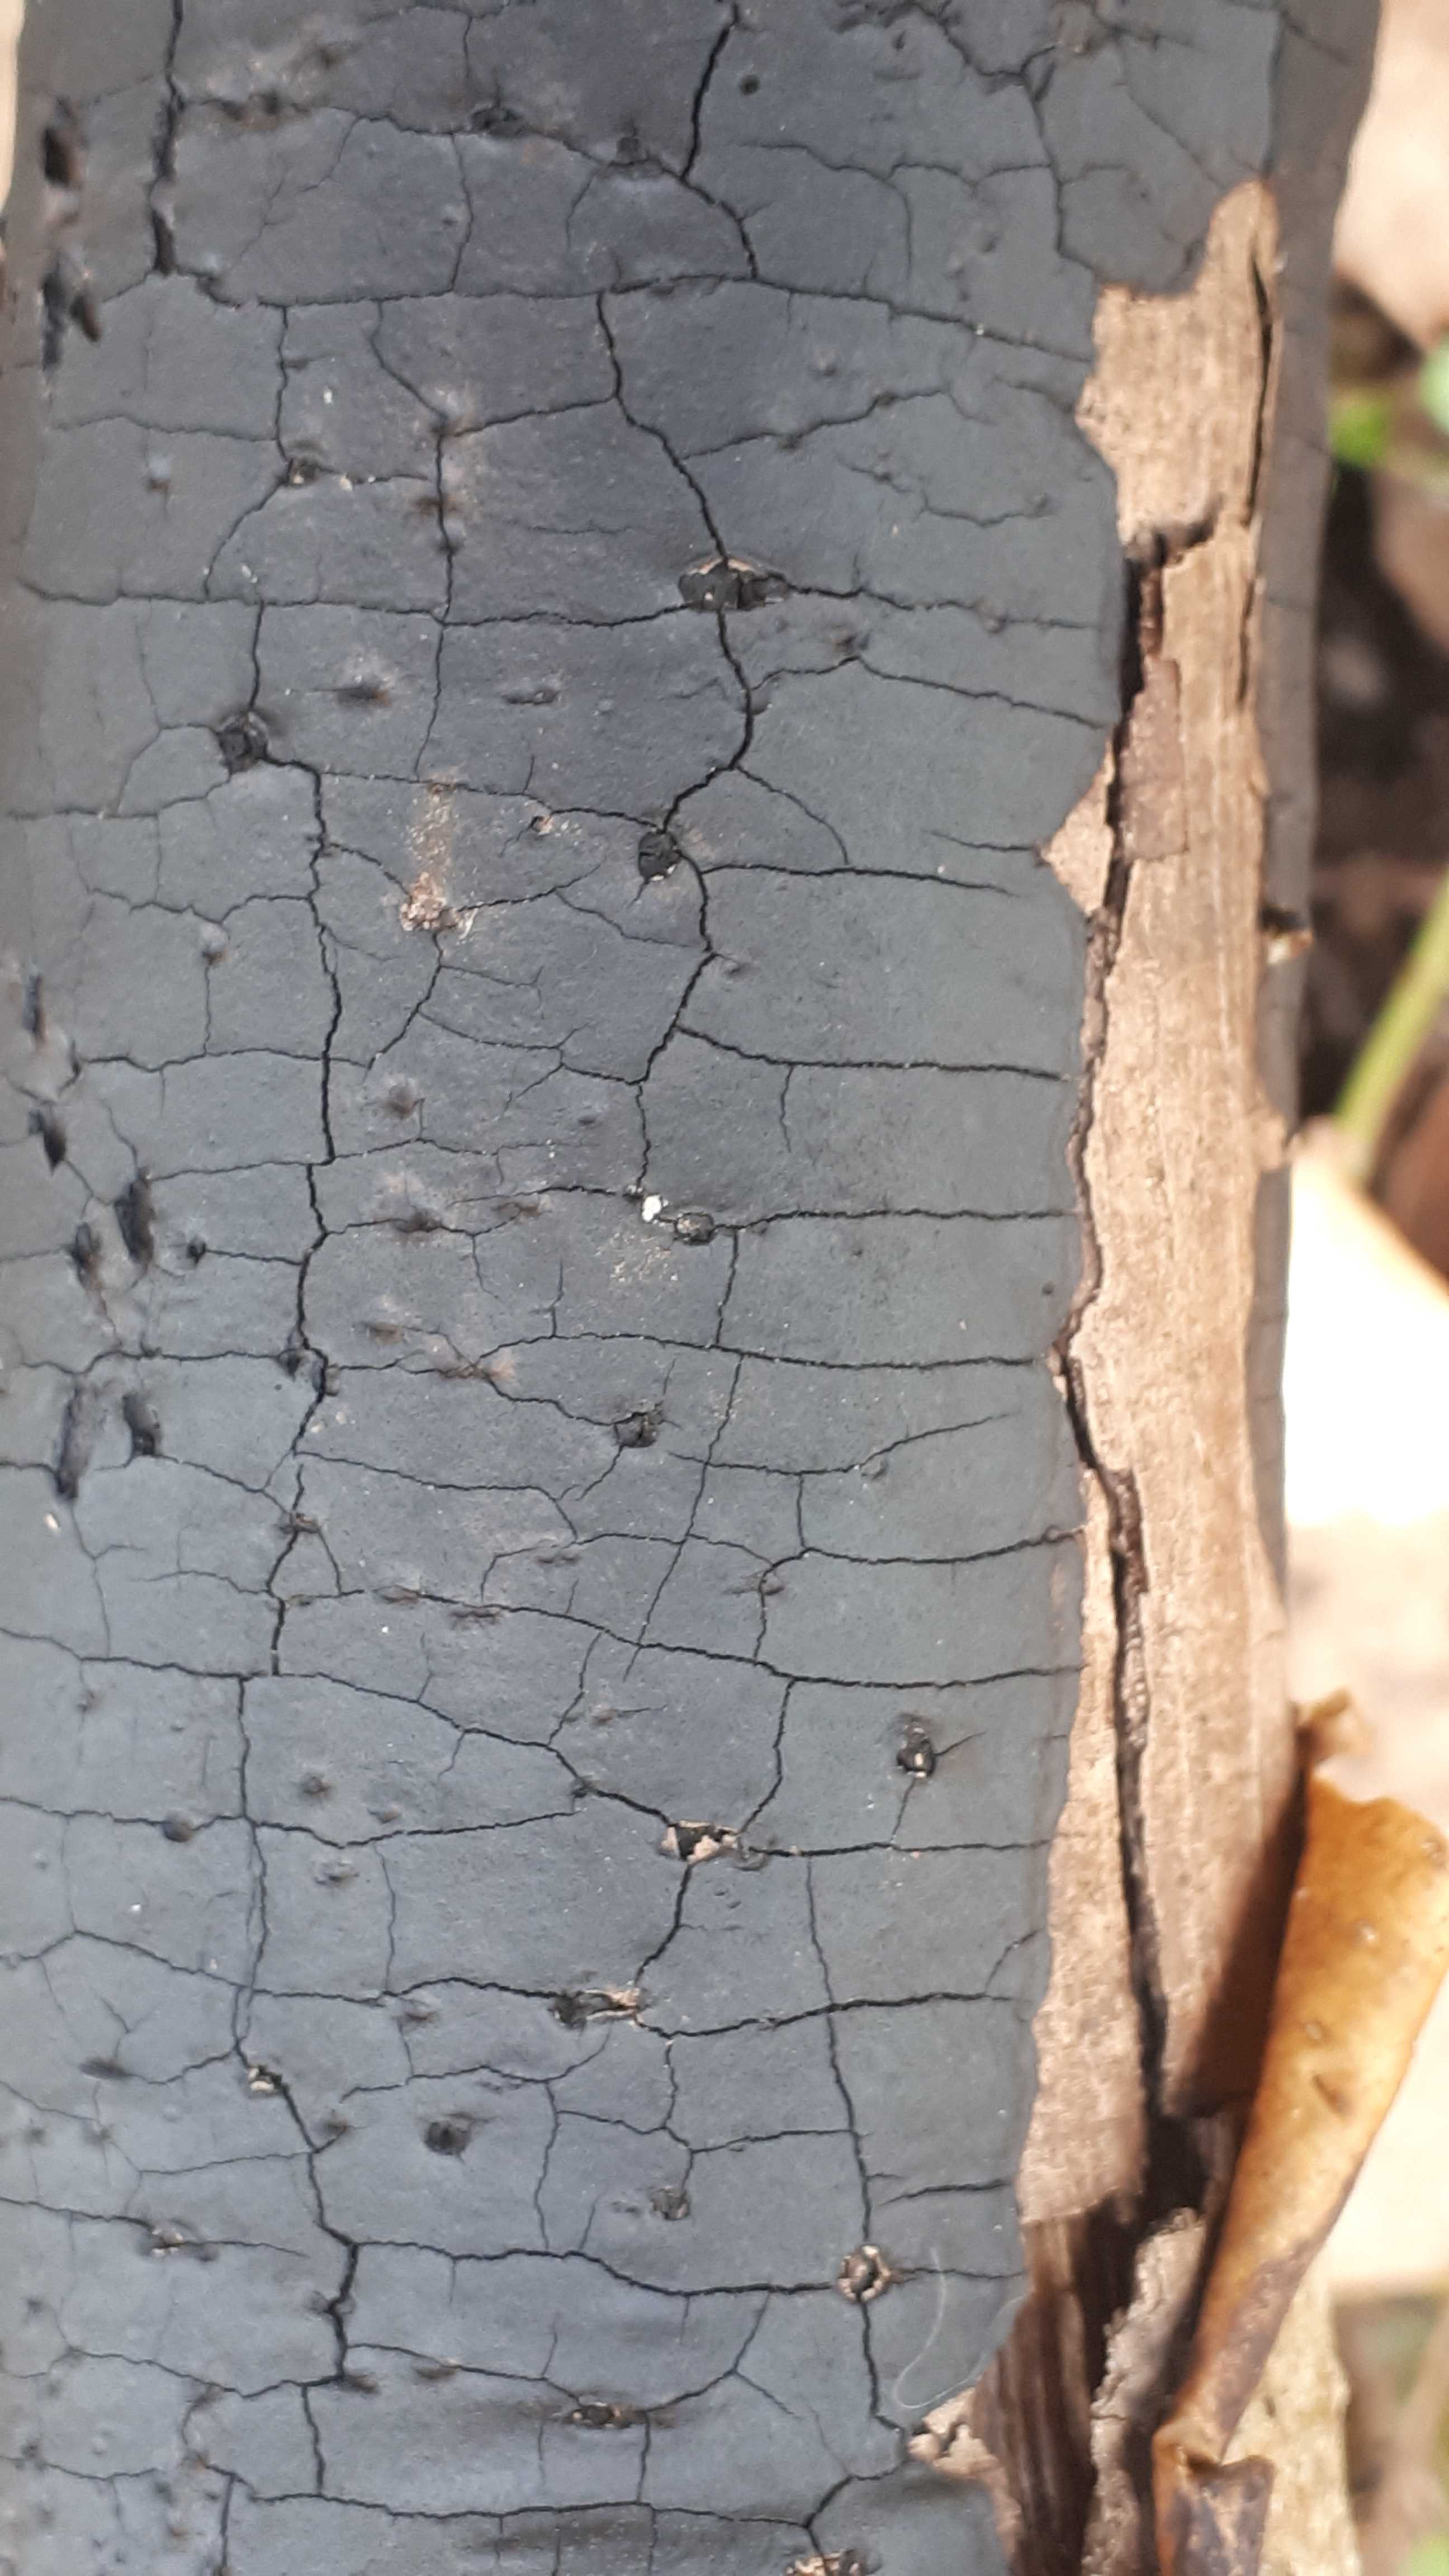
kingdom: Fungi
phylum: Ascomycota
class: Sordariomycetes
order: Xylariales
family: Diatrypaceae
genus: Diatrype
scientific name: Diatrype
